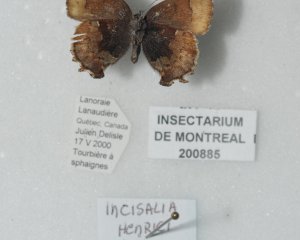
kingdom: Animalia
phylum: Arthropoda
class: Insecta
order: Lepidoptera
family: Lycaenidae
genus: Incisalia
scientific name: Incisalia henrici
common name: Henry's Elfin
